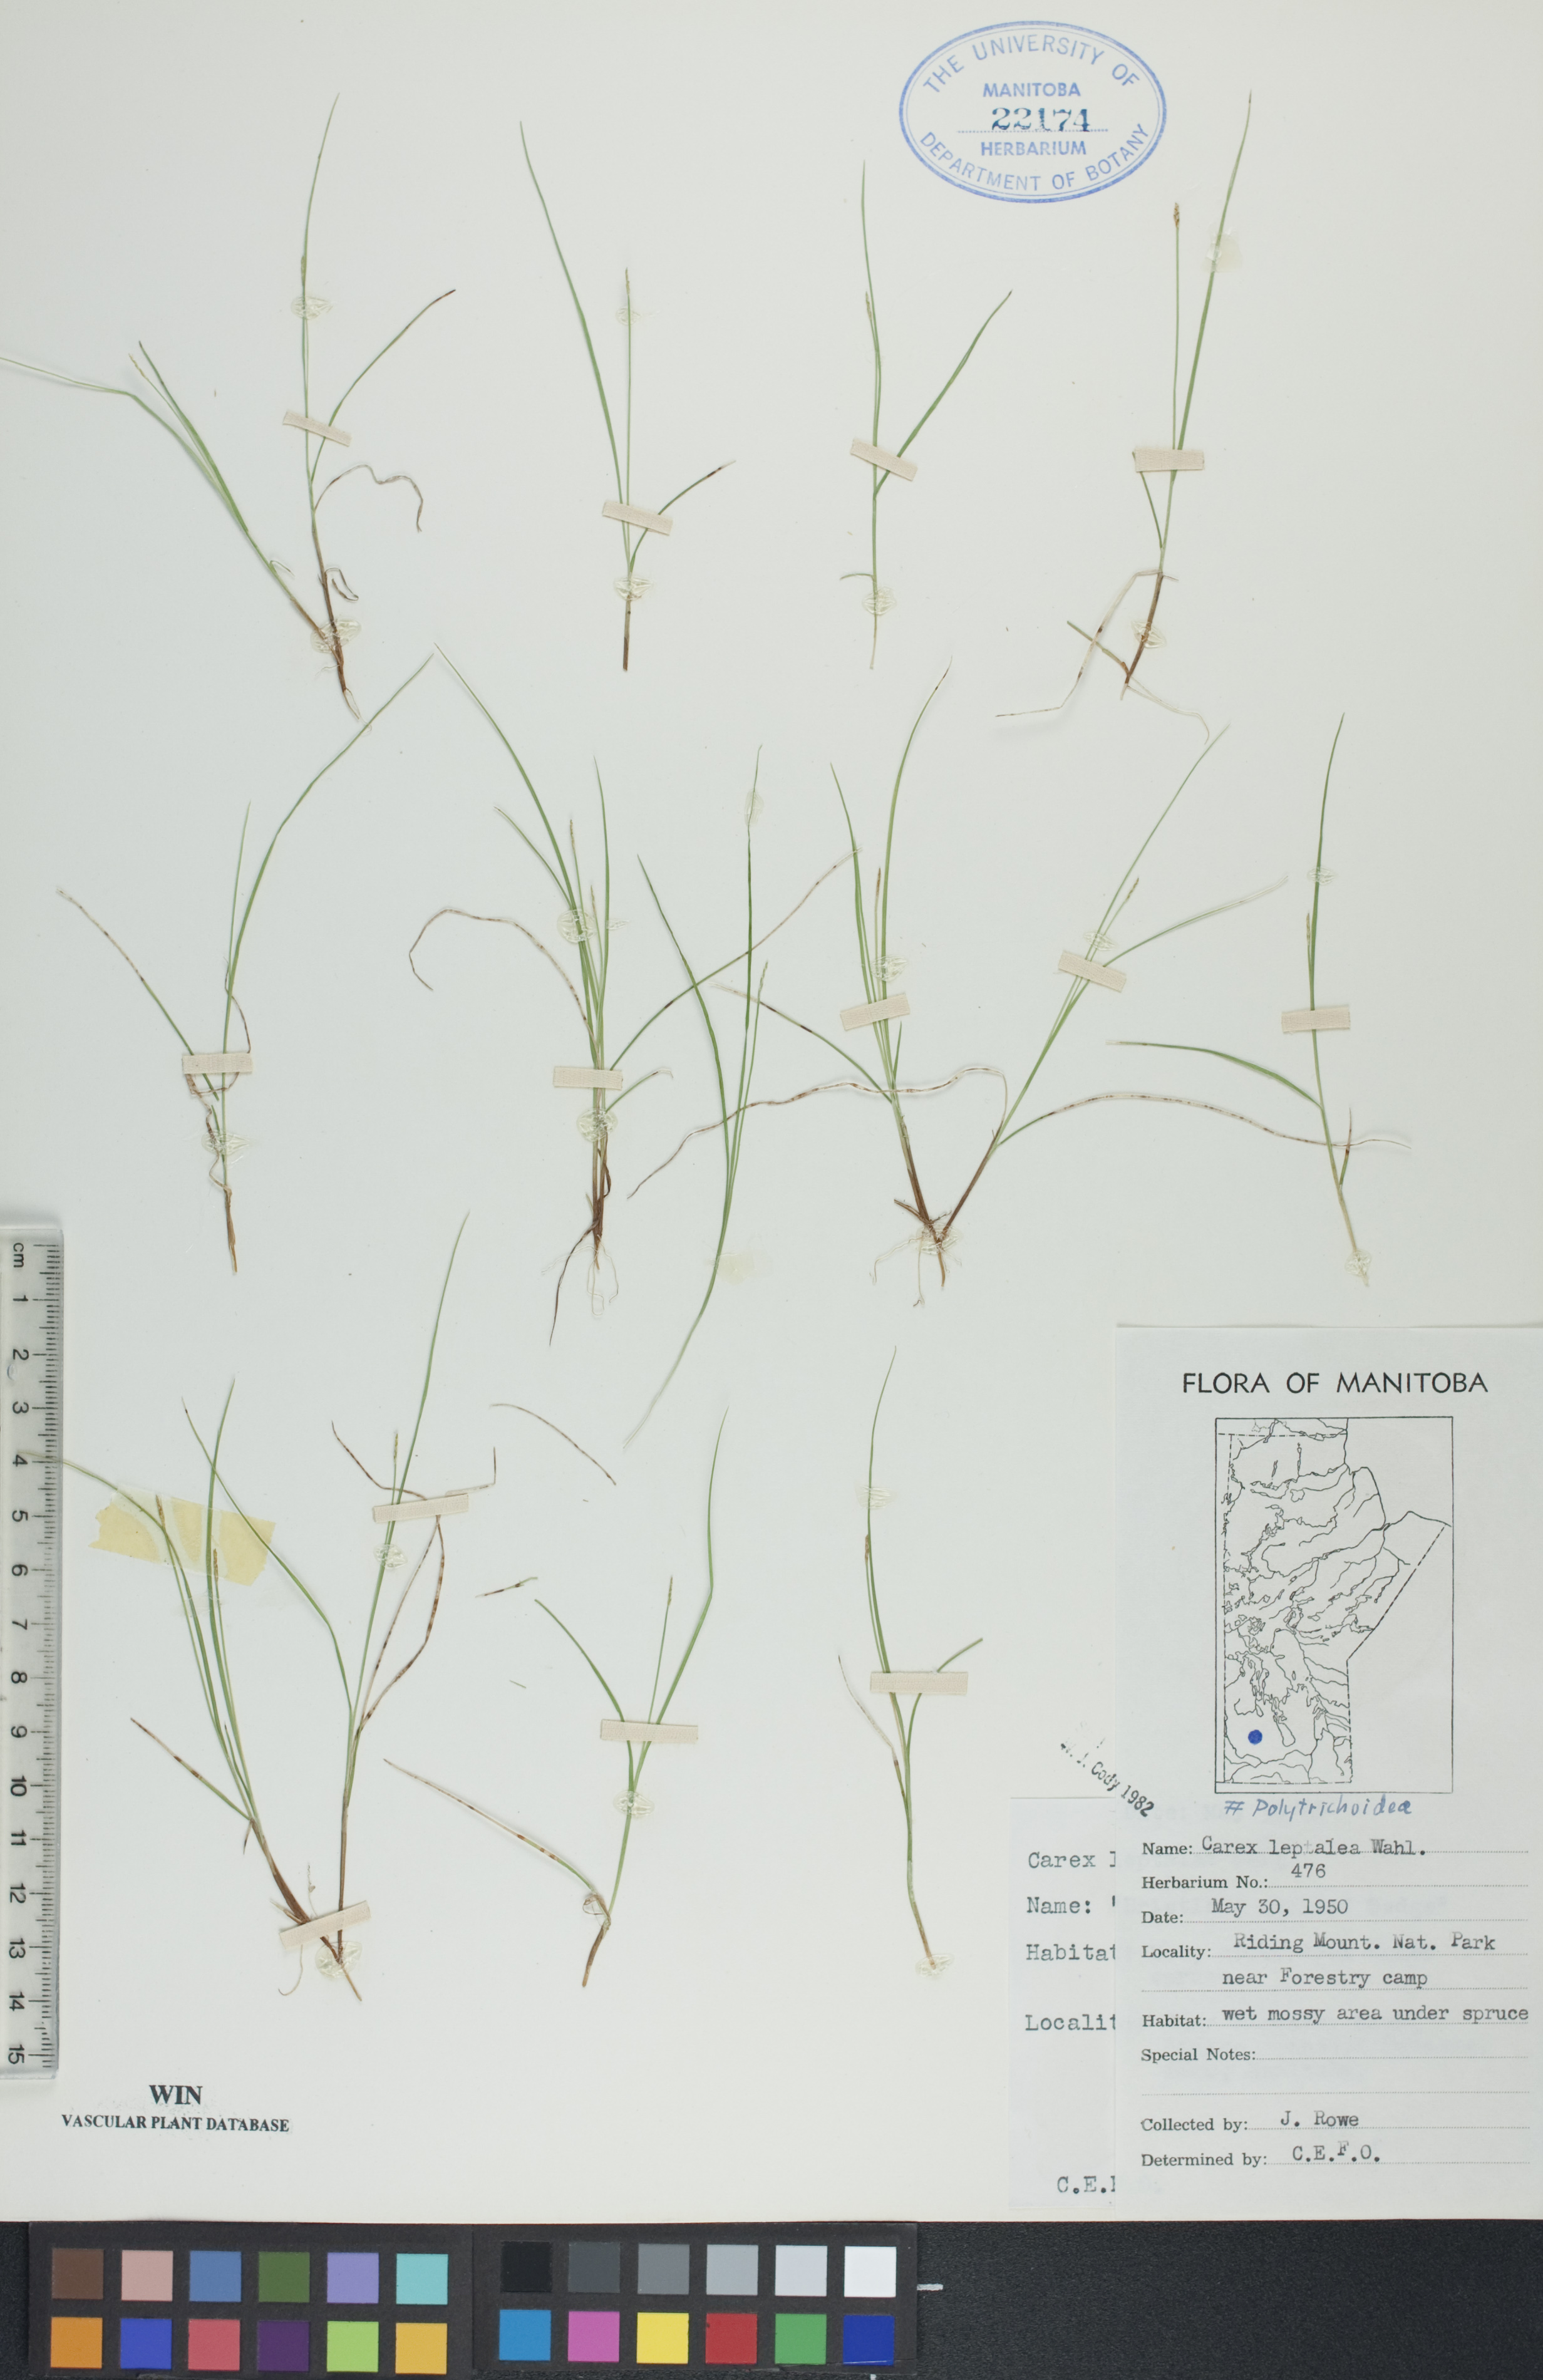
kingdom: Plantae
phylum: Tracheophyta
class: Liliopsida
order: Poales
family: Cyperaceae
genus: Carex
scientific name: Carex leptalea
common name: Bristly-stalked sedge
